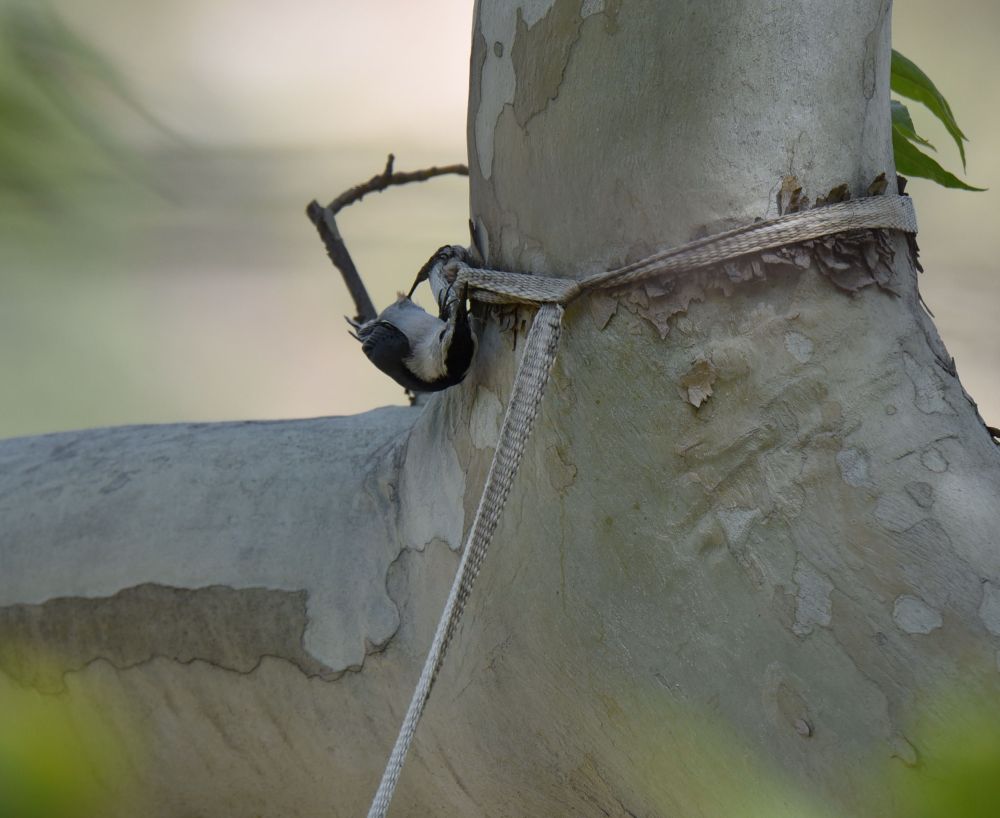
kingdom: Animalia
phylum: Chordata
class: Aves
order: Passeriformes
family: Sittidae
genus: Sitta
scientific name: Sitta carolinensis
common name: White-breasted nuthatch
